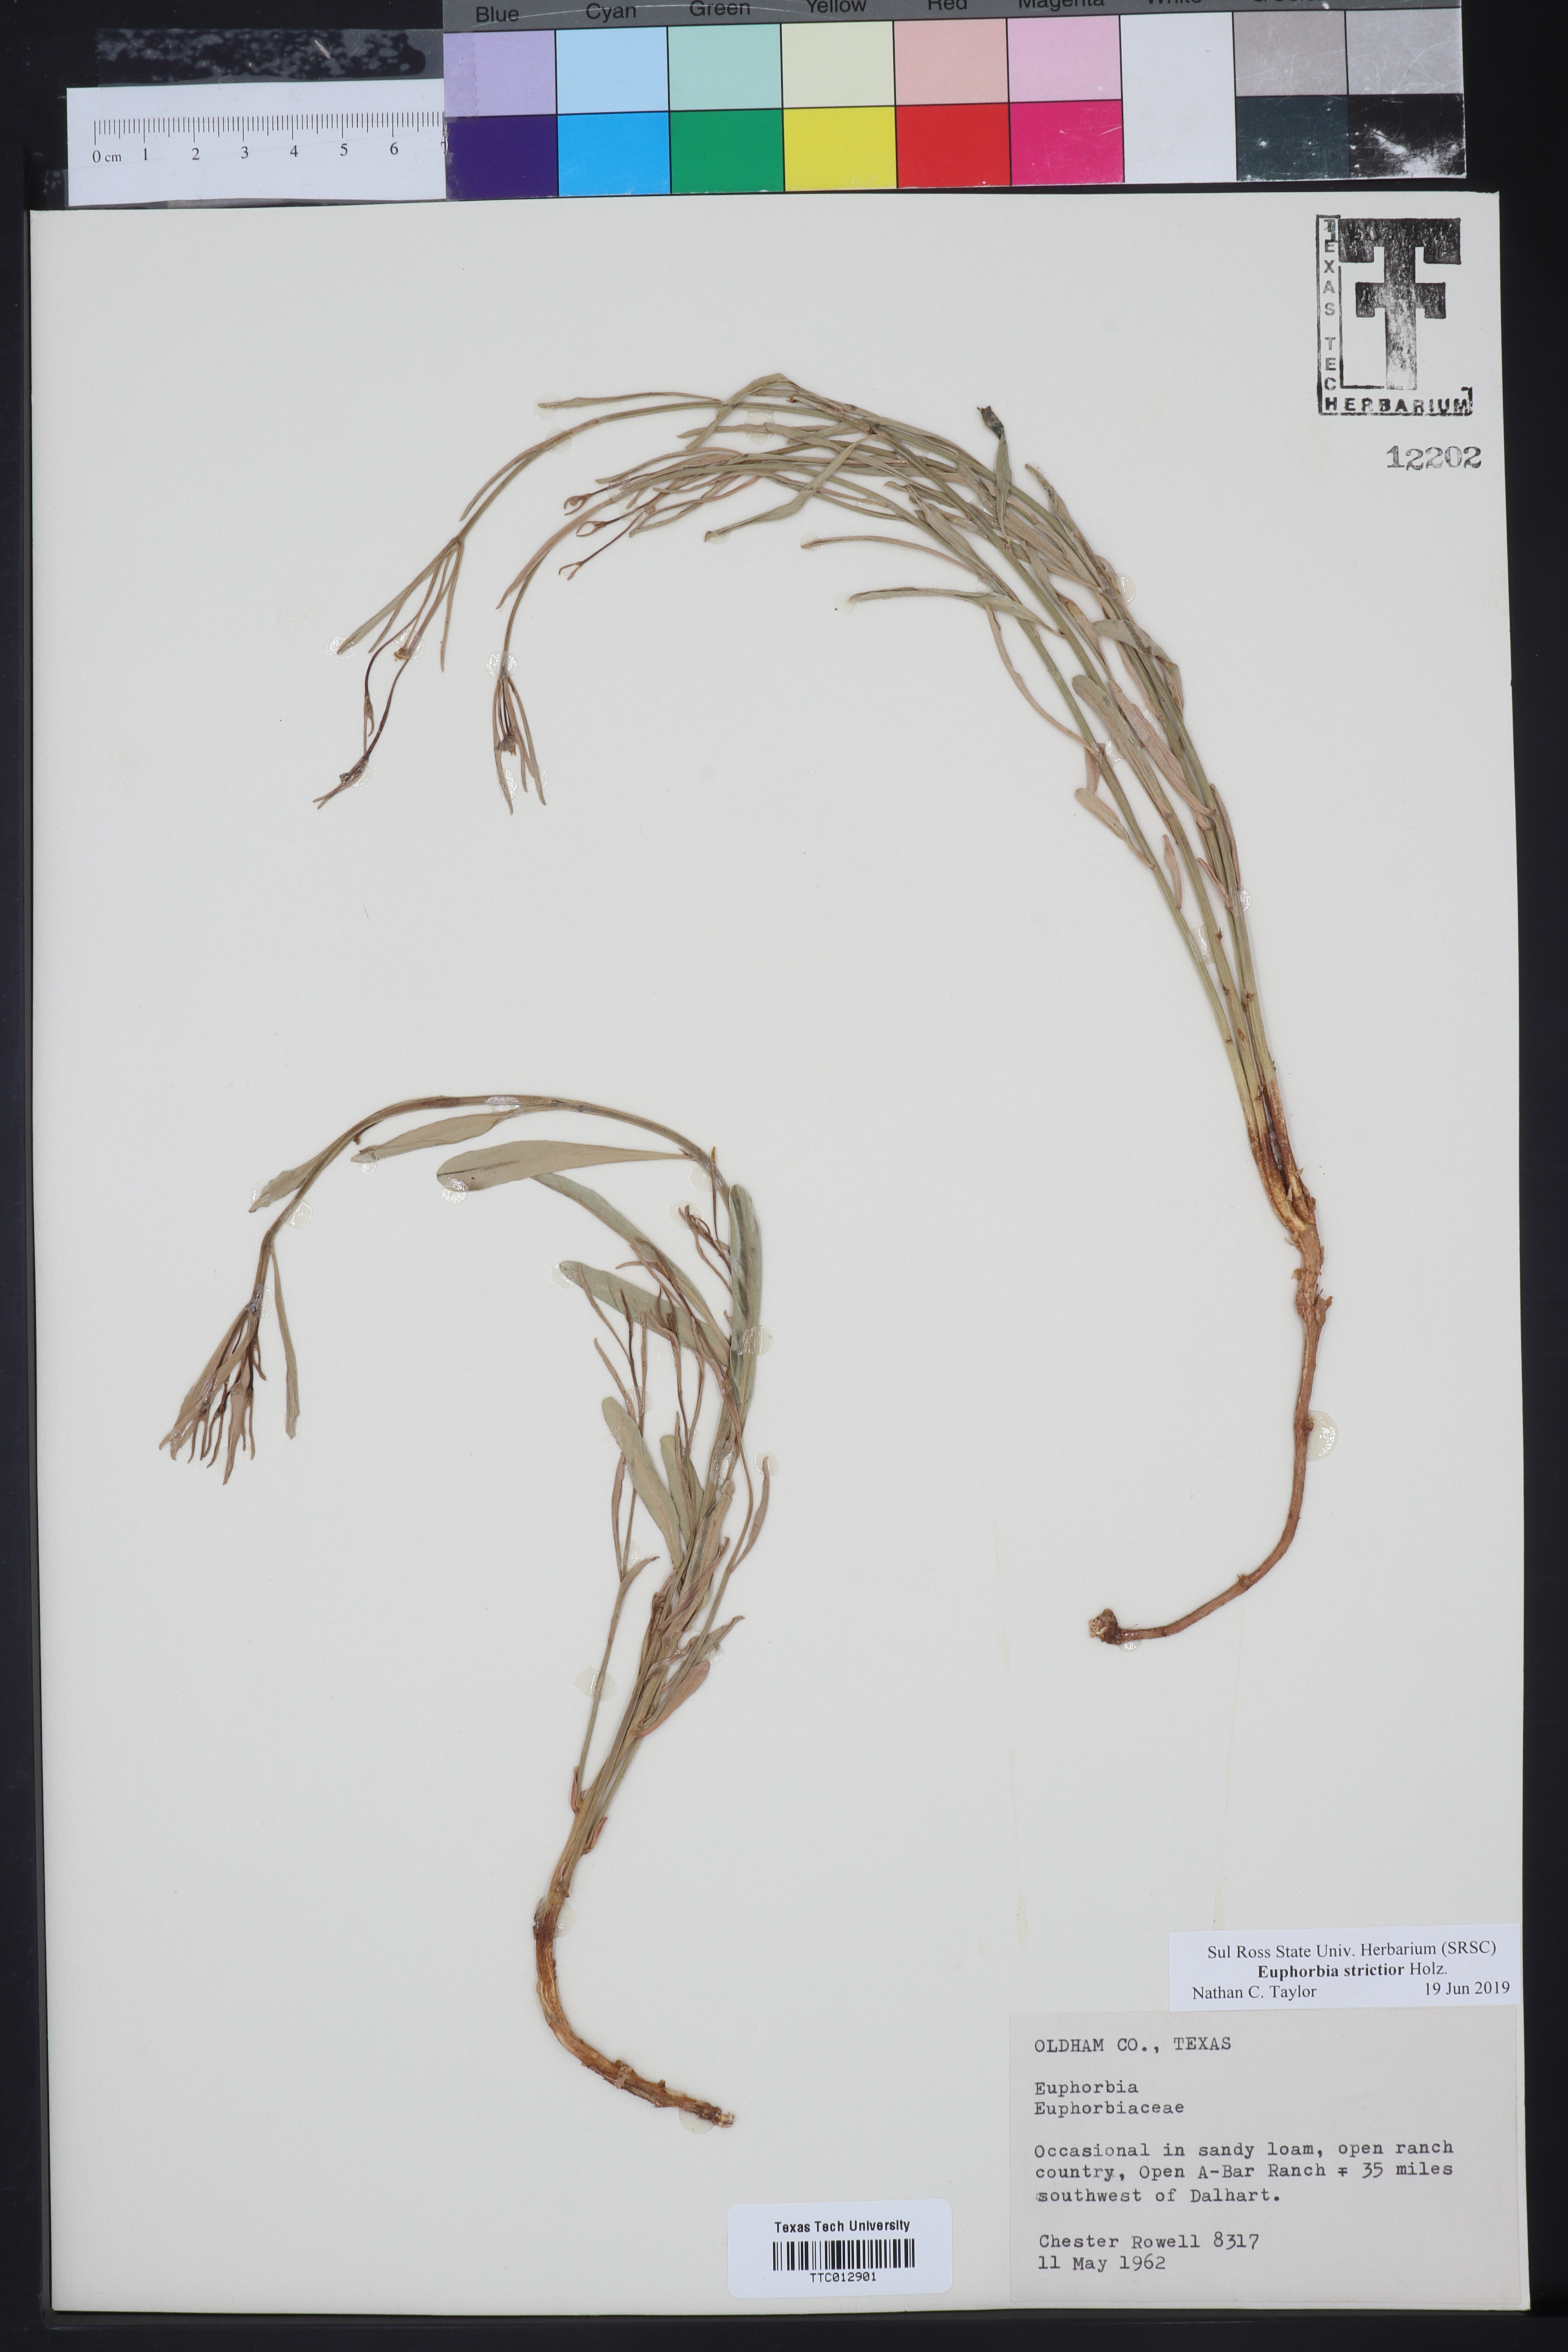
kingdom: Plantae
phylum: Tracheophyta
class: Magnoliopsida
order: Malpighiales
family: Euphorbiaceae
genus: Euphorbia
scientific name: Euphorbia strictior
